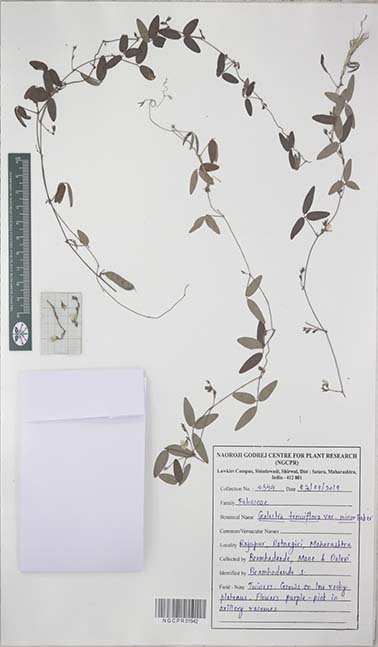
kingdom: Plantae
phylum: Tracheophyta
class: Magnoliopsida
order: Fabales
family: Fabaceae
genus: Galactia
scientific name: Galactia striata
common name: Florida hammock milkpea
